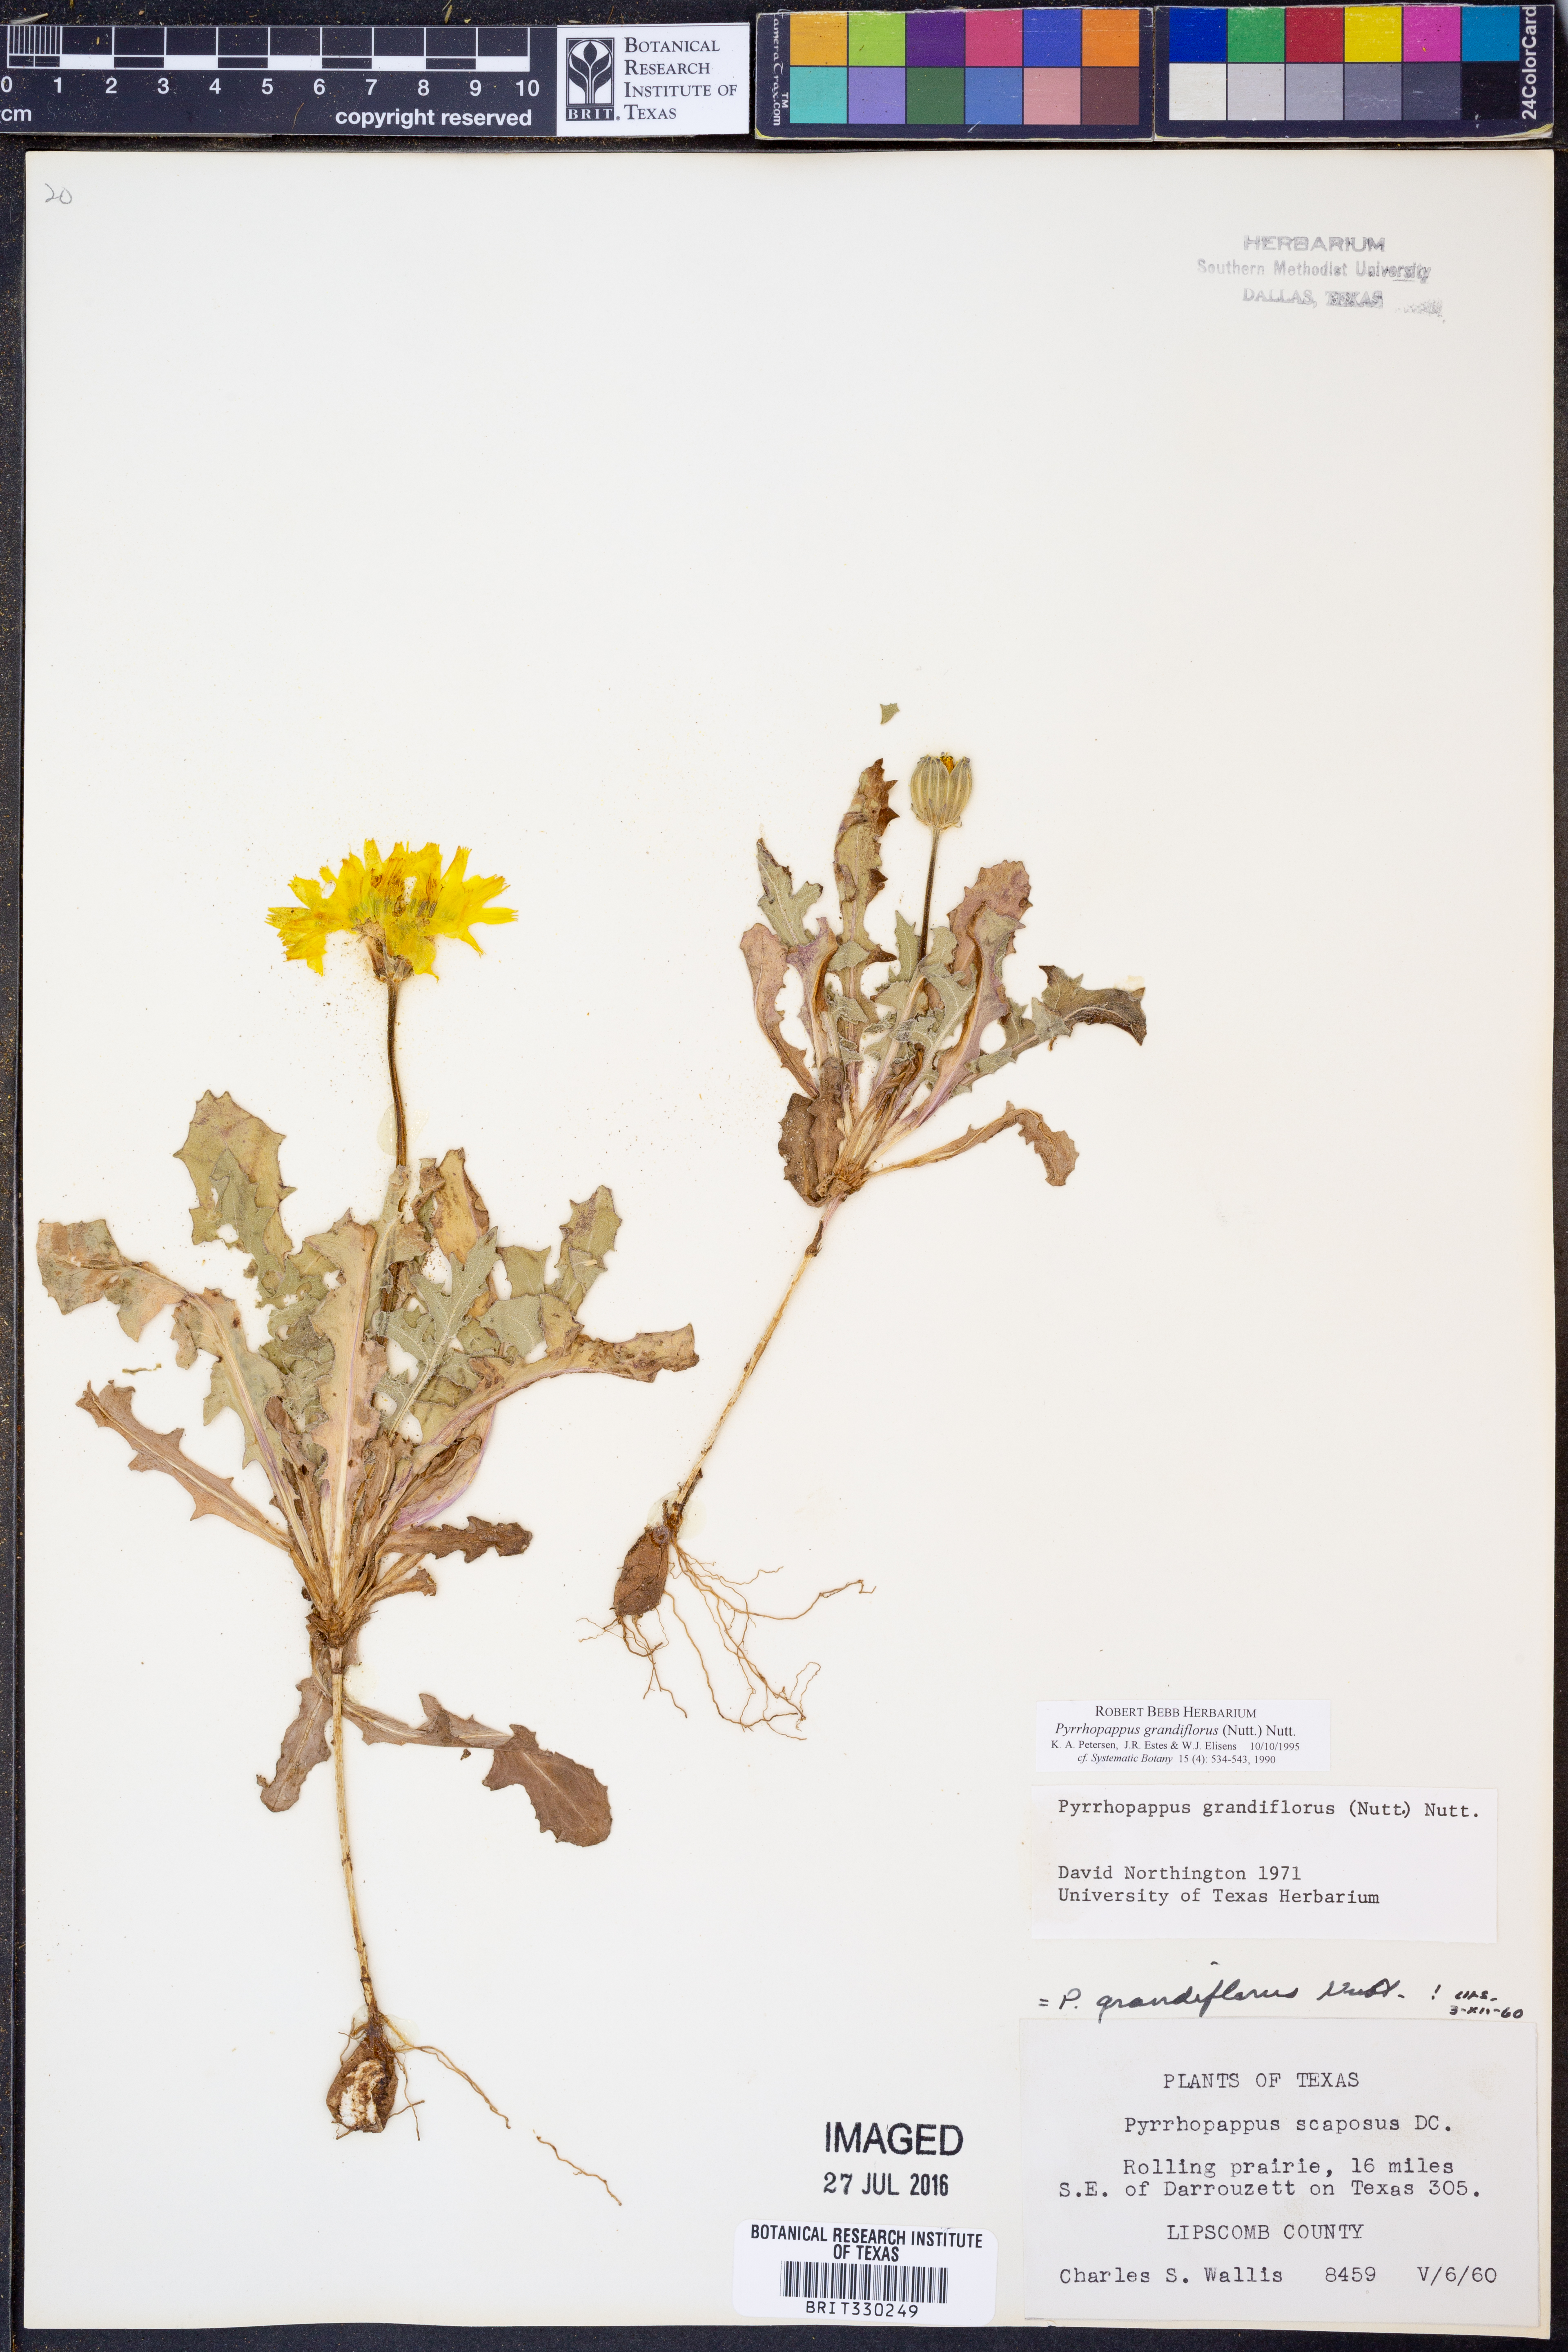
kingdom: Plantae
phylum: Tracheophyta
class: Magnoliopsida
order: Asterales
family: Asteraceae
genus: Pyrrhopappus
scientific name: Pyrrhopappus grandiflorus
